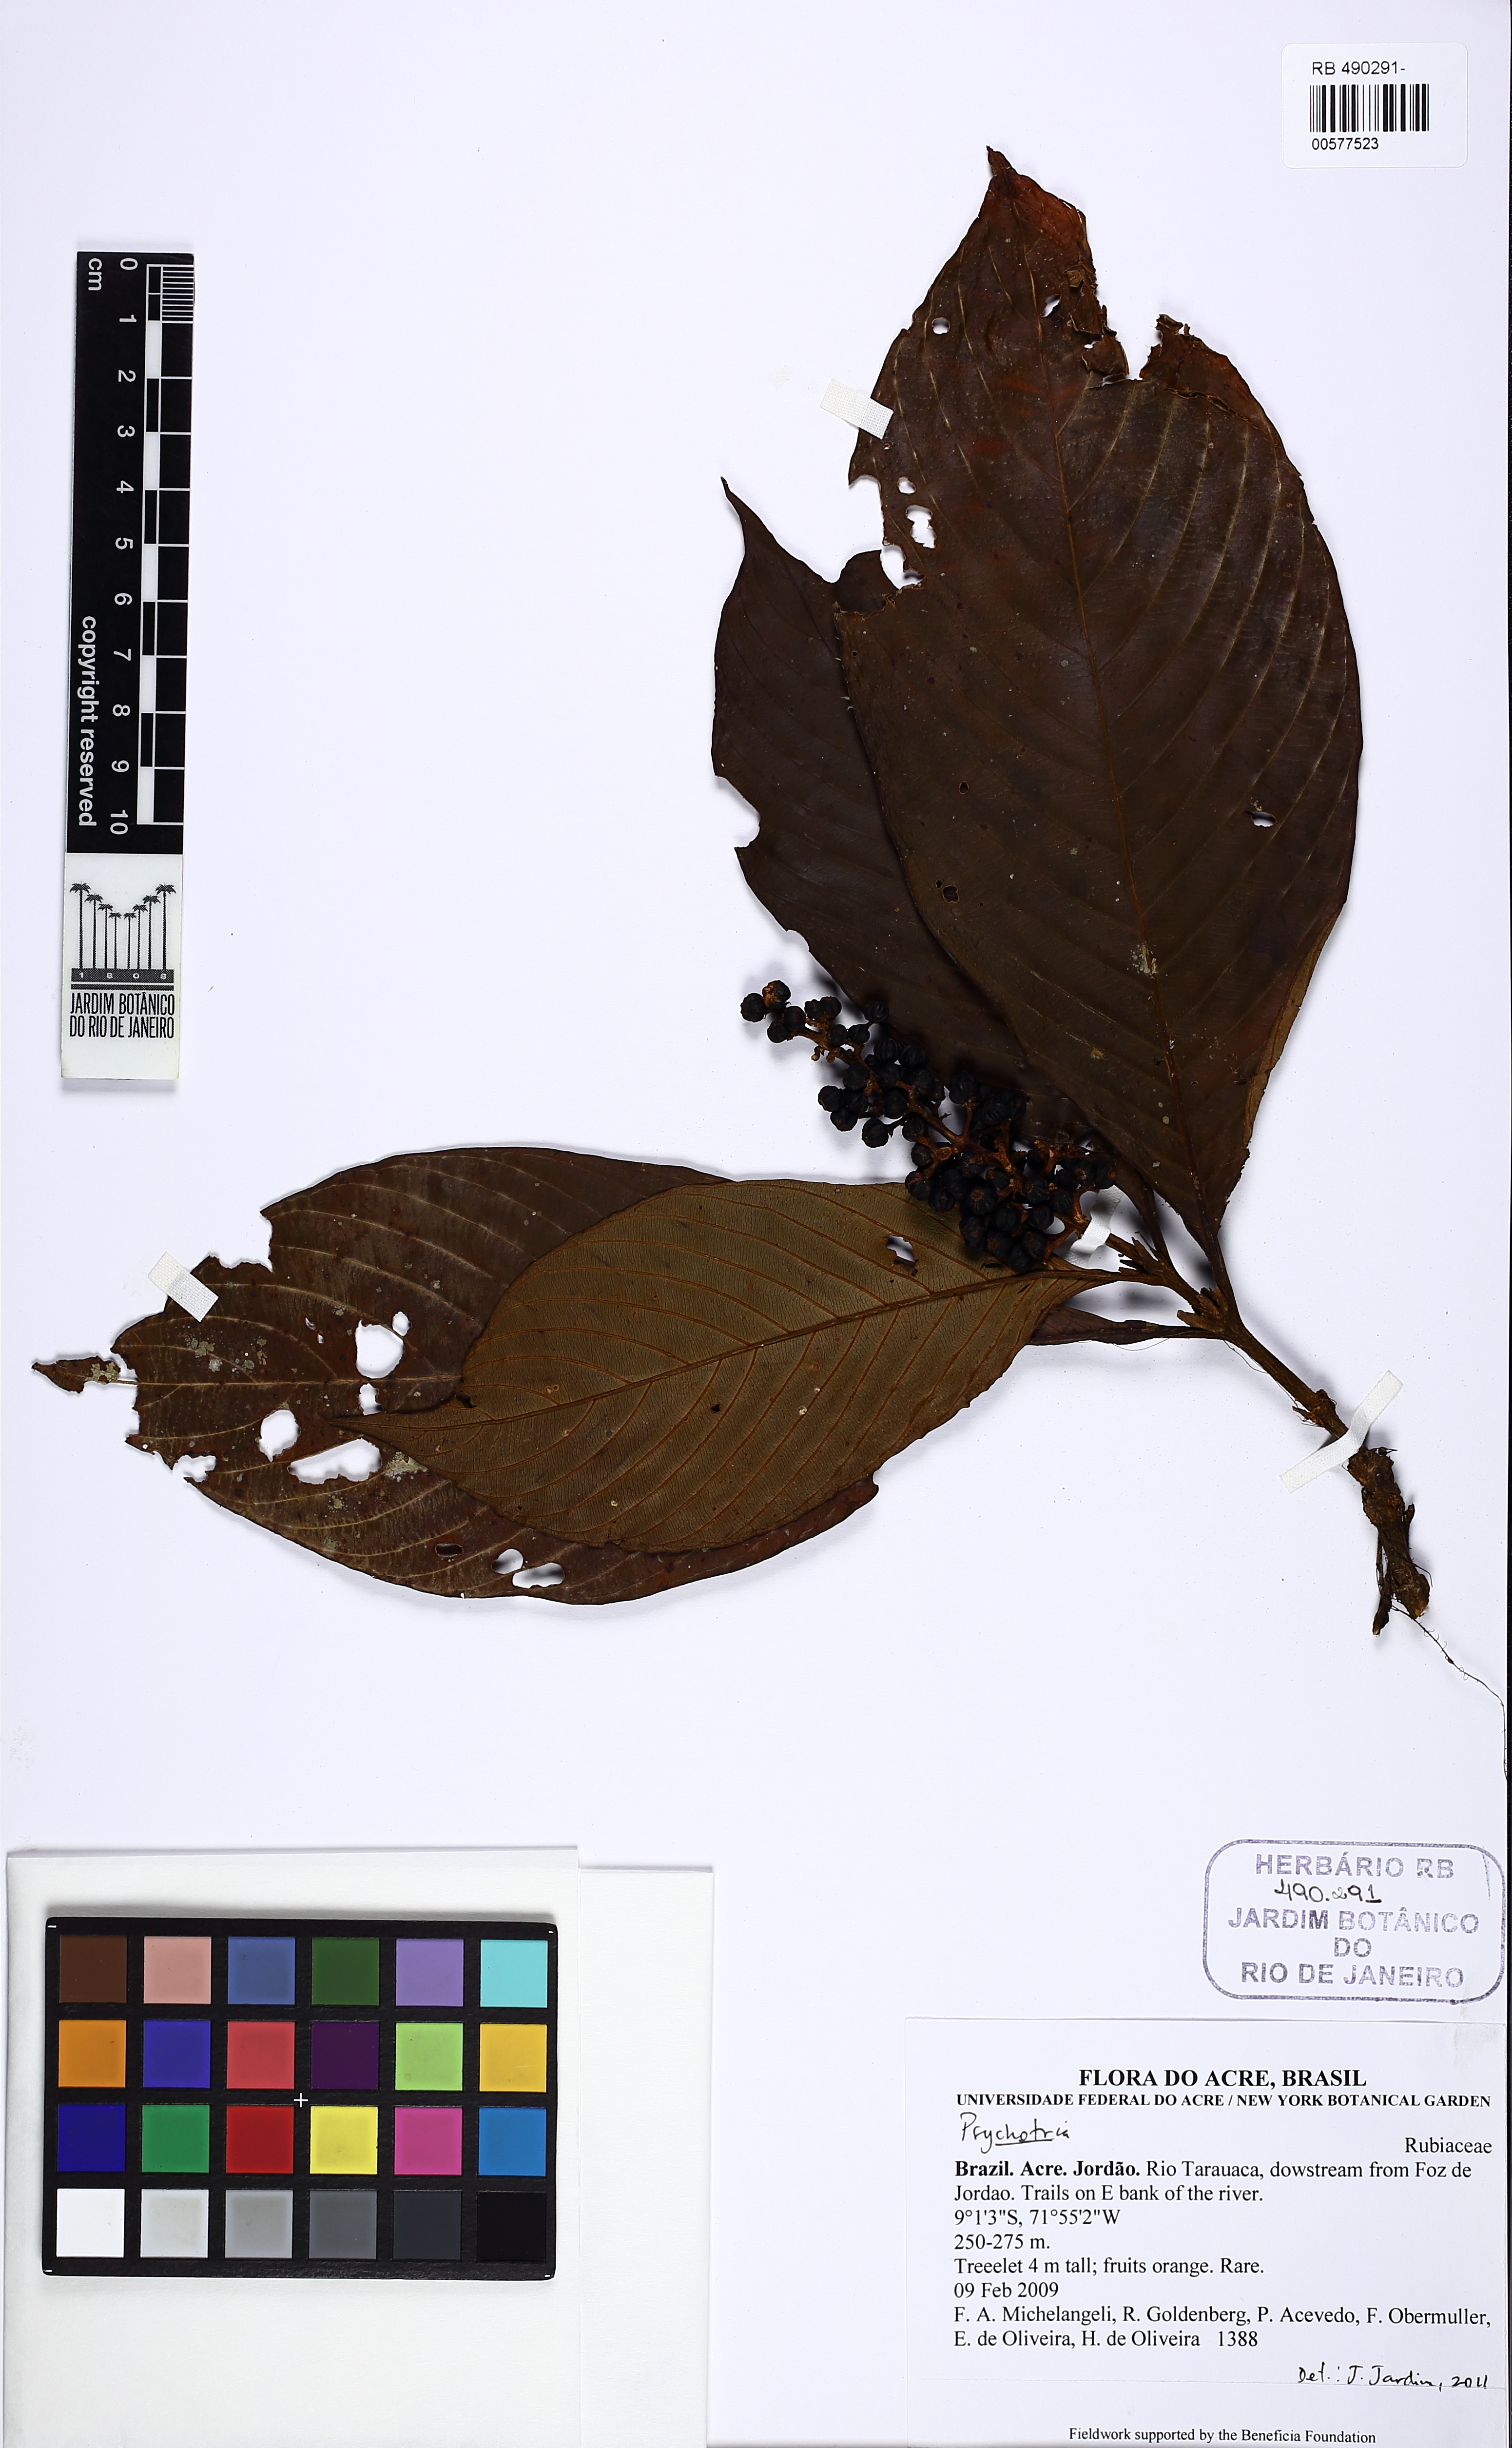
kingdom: Plantae
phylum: Tracheophyta
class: Magnoliopsida
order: Gentianales
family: Rubiaceae
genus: Palicourea
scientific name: Palicourea racemosa
